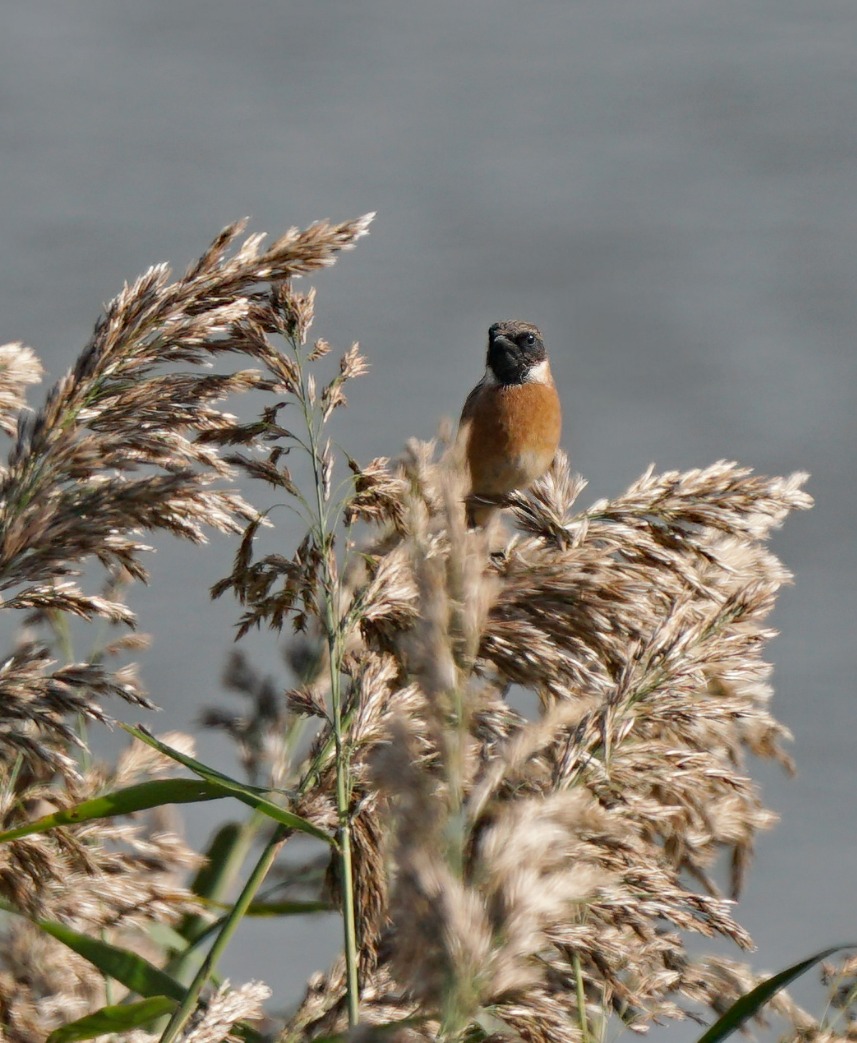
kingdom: Animalia
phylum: Chordata
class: Aves
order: Passeriformes
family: Muscicapidae
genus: Saxicola
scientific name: Saxicola rubicola
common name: Sortstrubet bynkefugl
